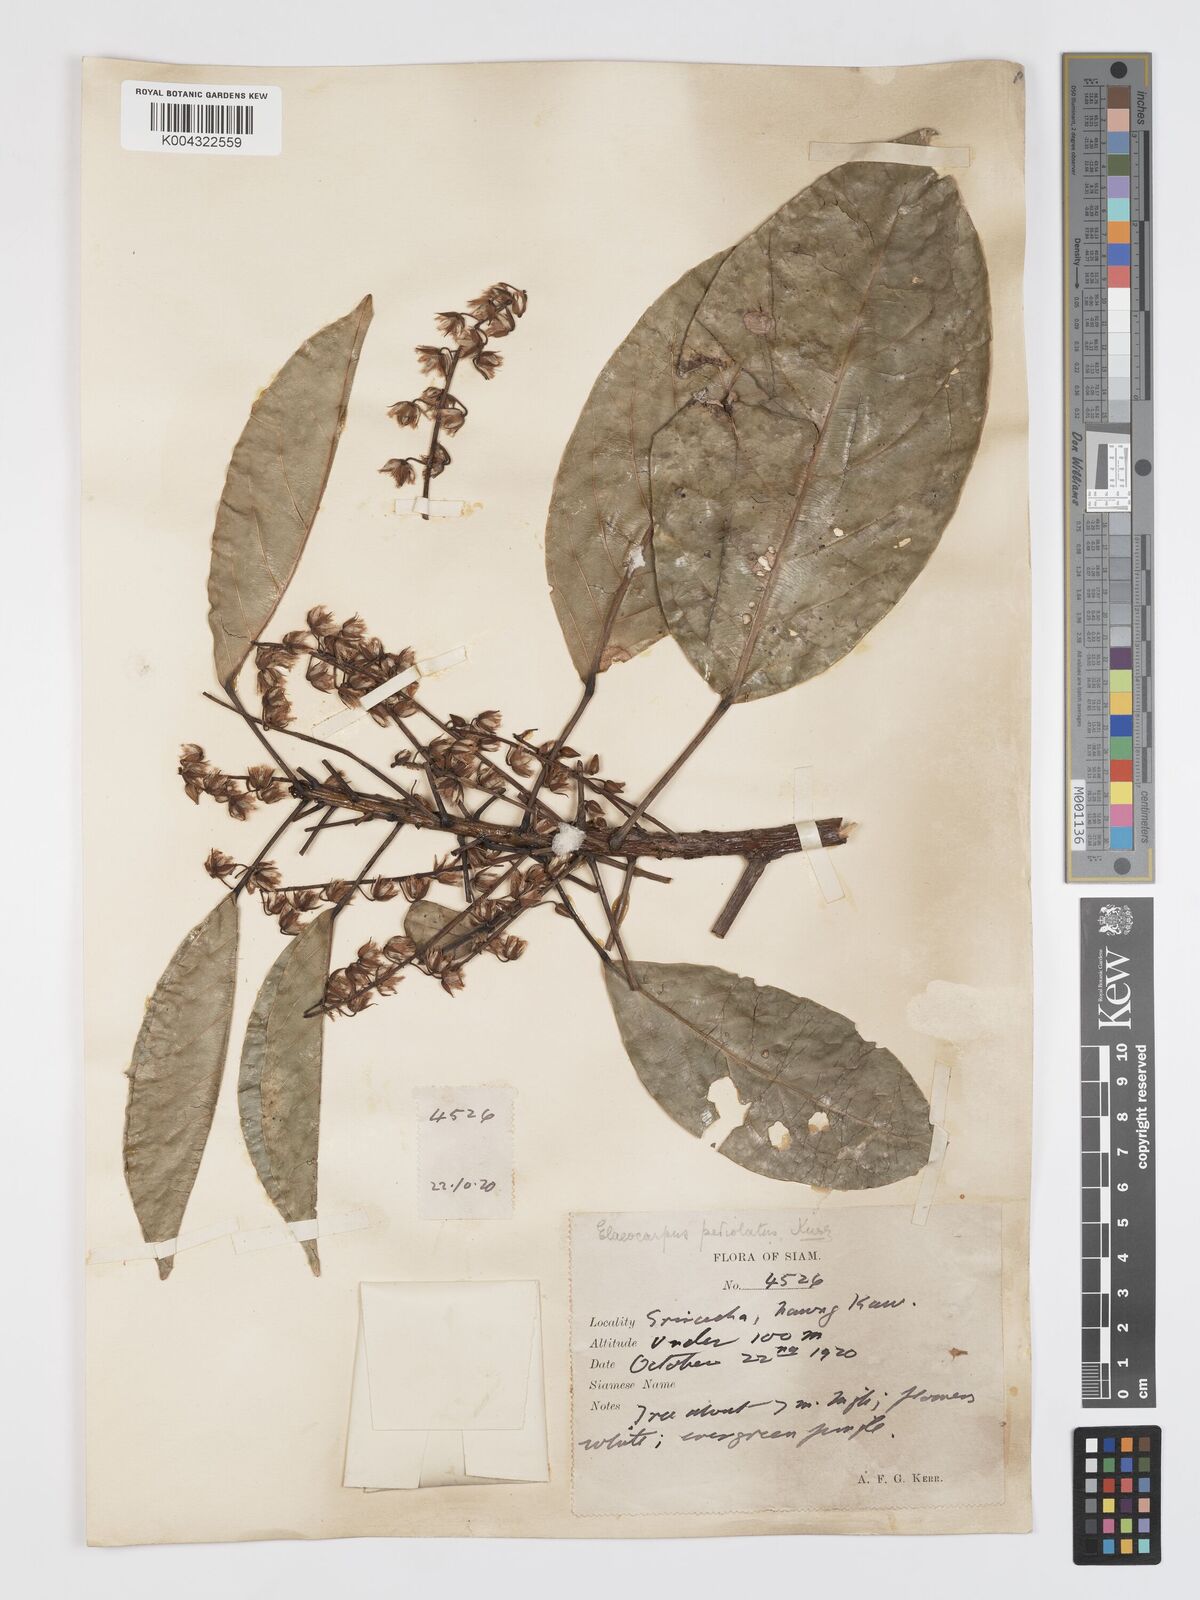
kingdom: Plantae
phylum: Tracheophyta
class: Magnoliopsida
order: Oxalidales
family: Elaeocarpaceae
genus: Elaeocarpus
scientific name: Elaeocarpus petiolatus
